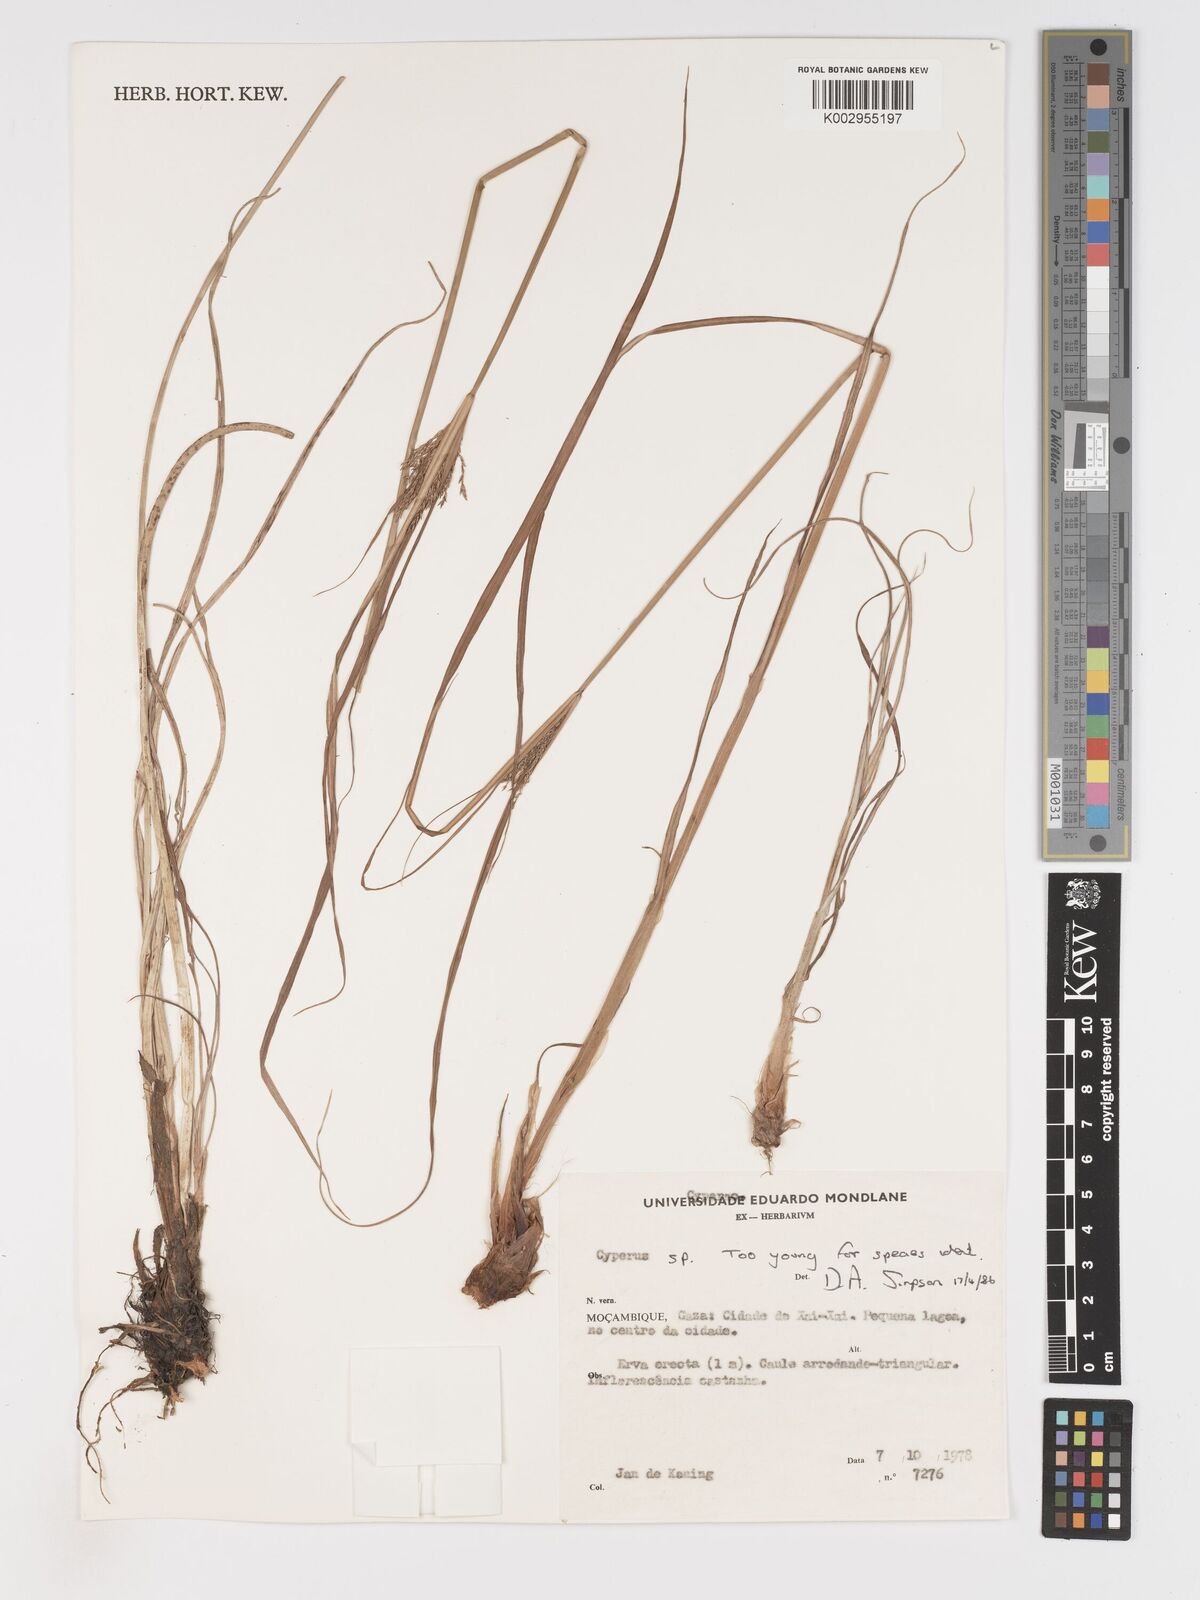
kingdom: Plantae
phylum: Tracheophyta
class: Liliopsida
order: Poales
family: Cyperaceae
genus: Cyperus
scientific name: Cyperus
